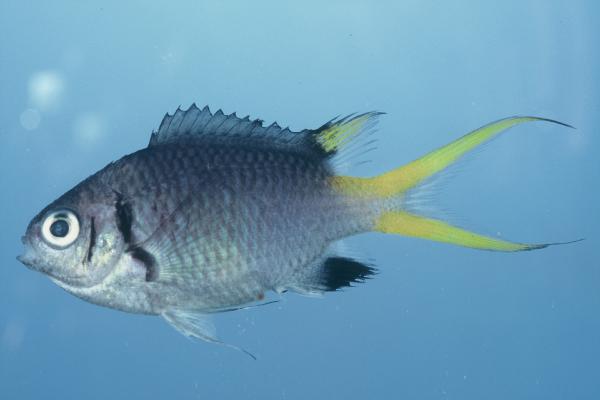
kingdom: Animalia
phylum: Chordata
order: Perciformes
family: Pomacentridae
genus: Chromis
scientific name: Chromis opercularis
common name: Doublebar chromis
